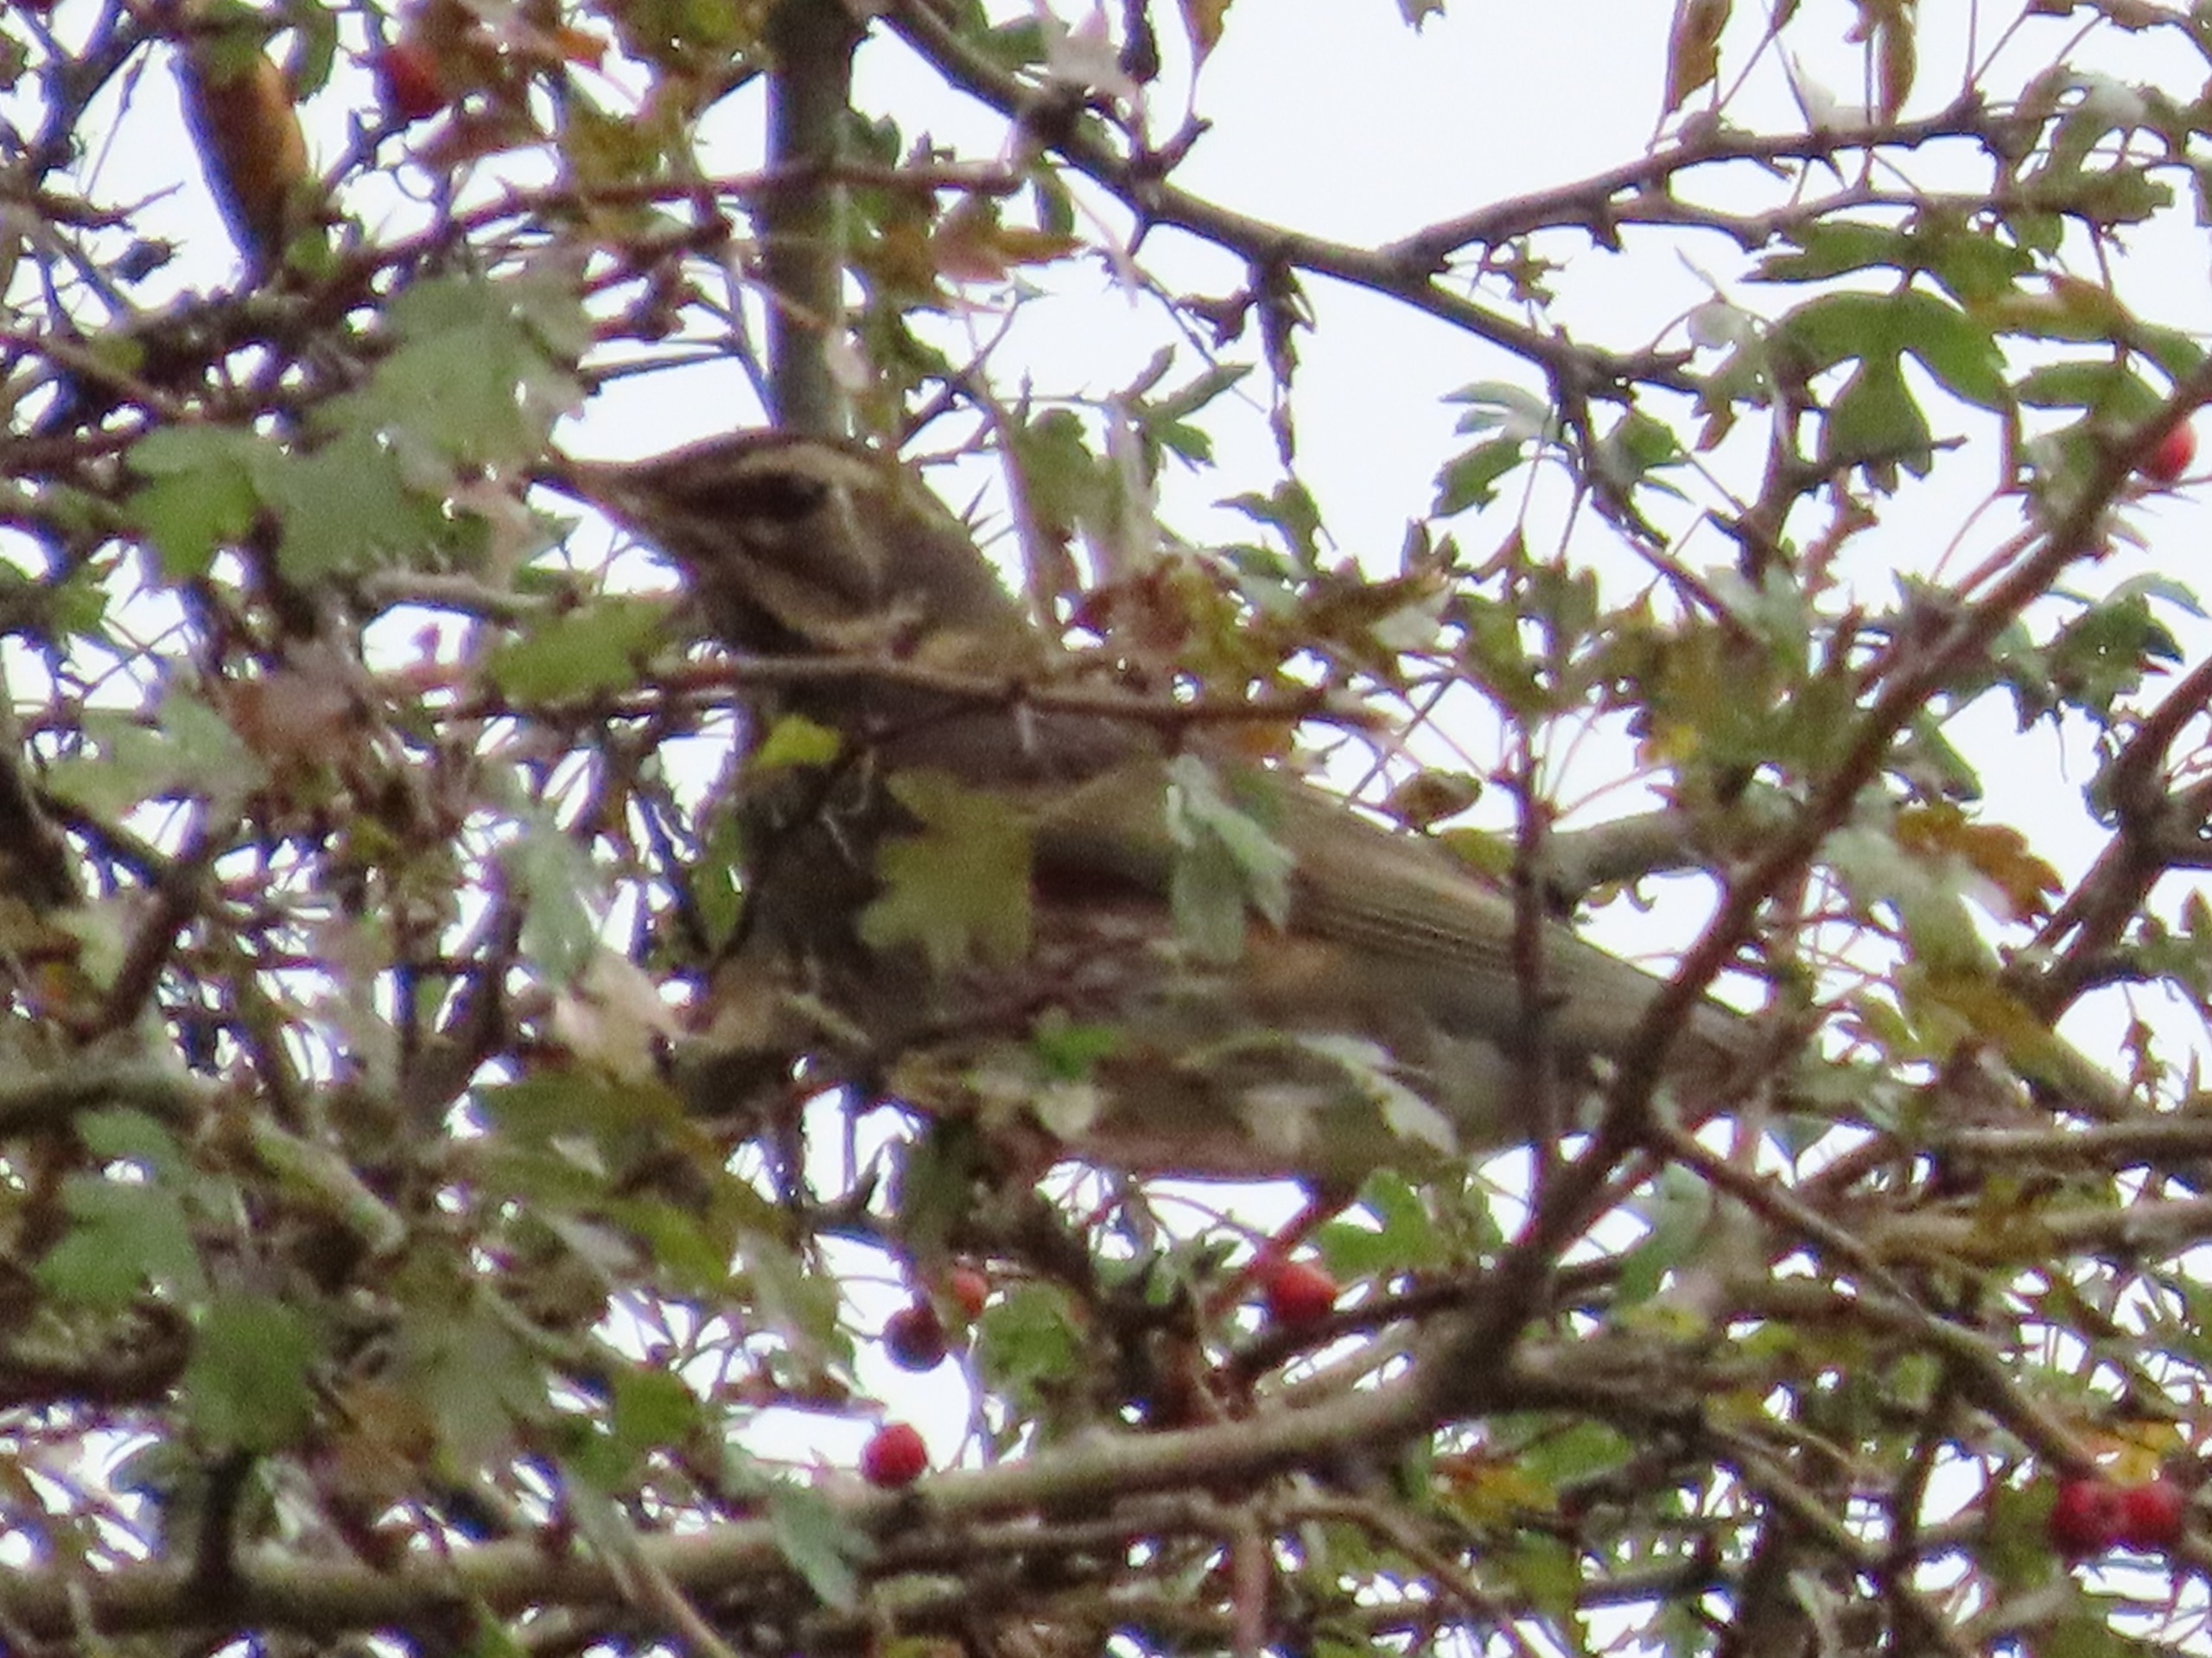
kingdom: Animalia
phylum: Chordata
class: Aves
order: Passeriformes
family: Turdidae
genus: Turdus
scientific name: Turdus iliacus
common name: Vindrossel
